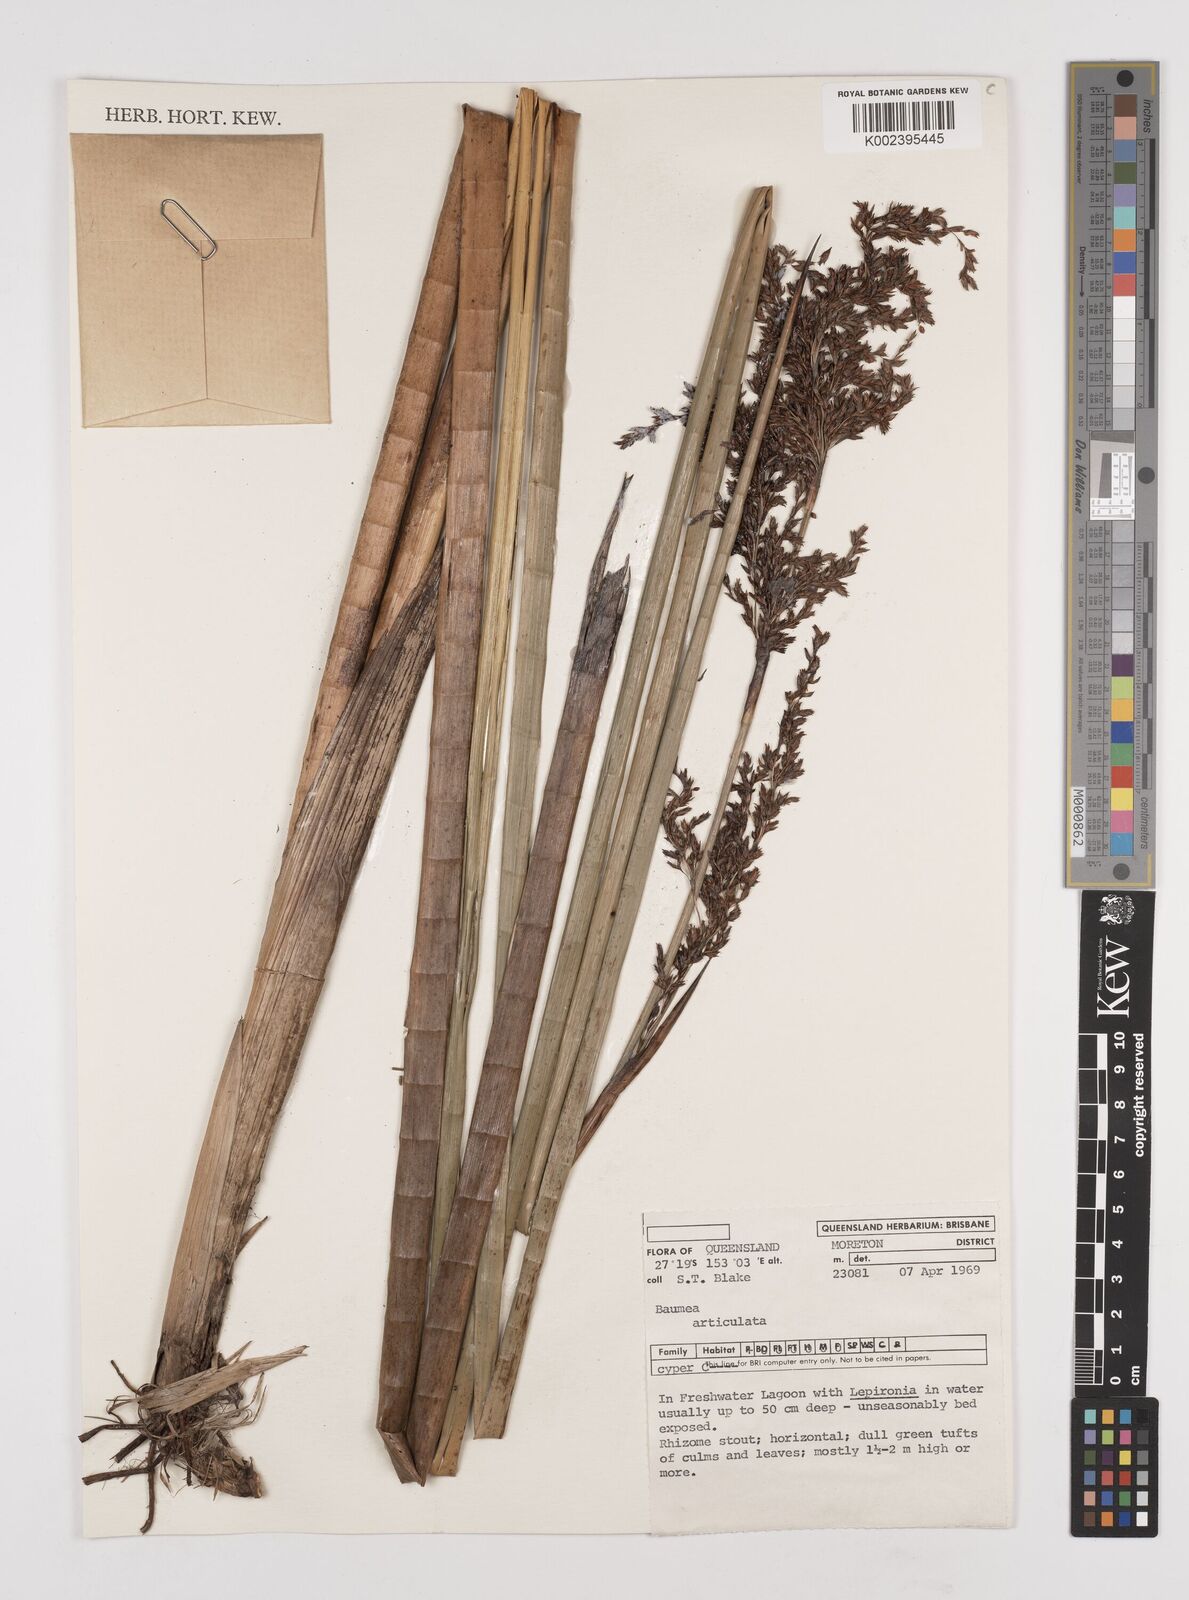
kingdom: Plantae
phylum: Tracheophyta
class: Liliopsida
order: Poales
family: Cyperaceae
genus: Machaerina
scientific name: Machaerina articulata
